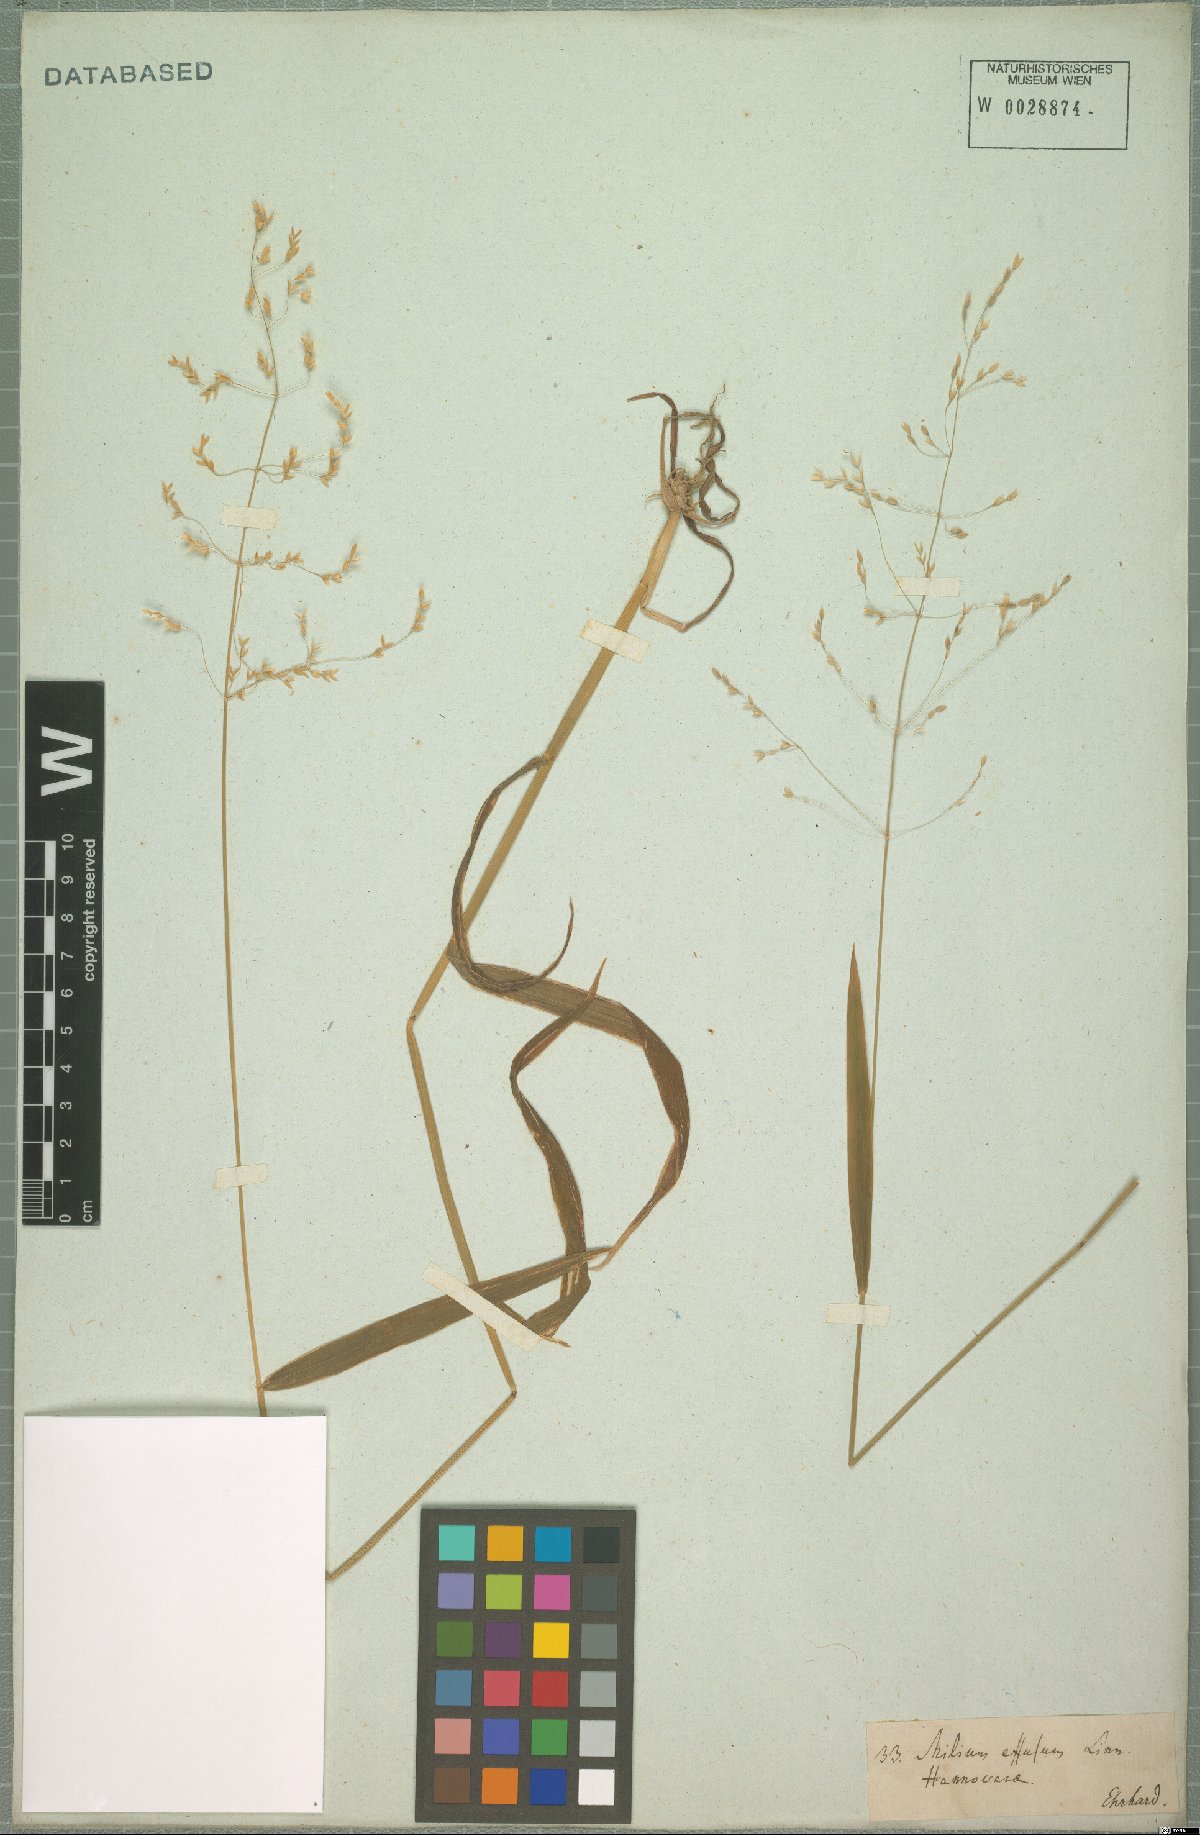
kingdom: Plantae
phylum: Tracheophyta
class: Liliopsida
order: Poales
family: Poaceae
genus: Milium
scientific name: Milium effusum
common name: Wood millet
